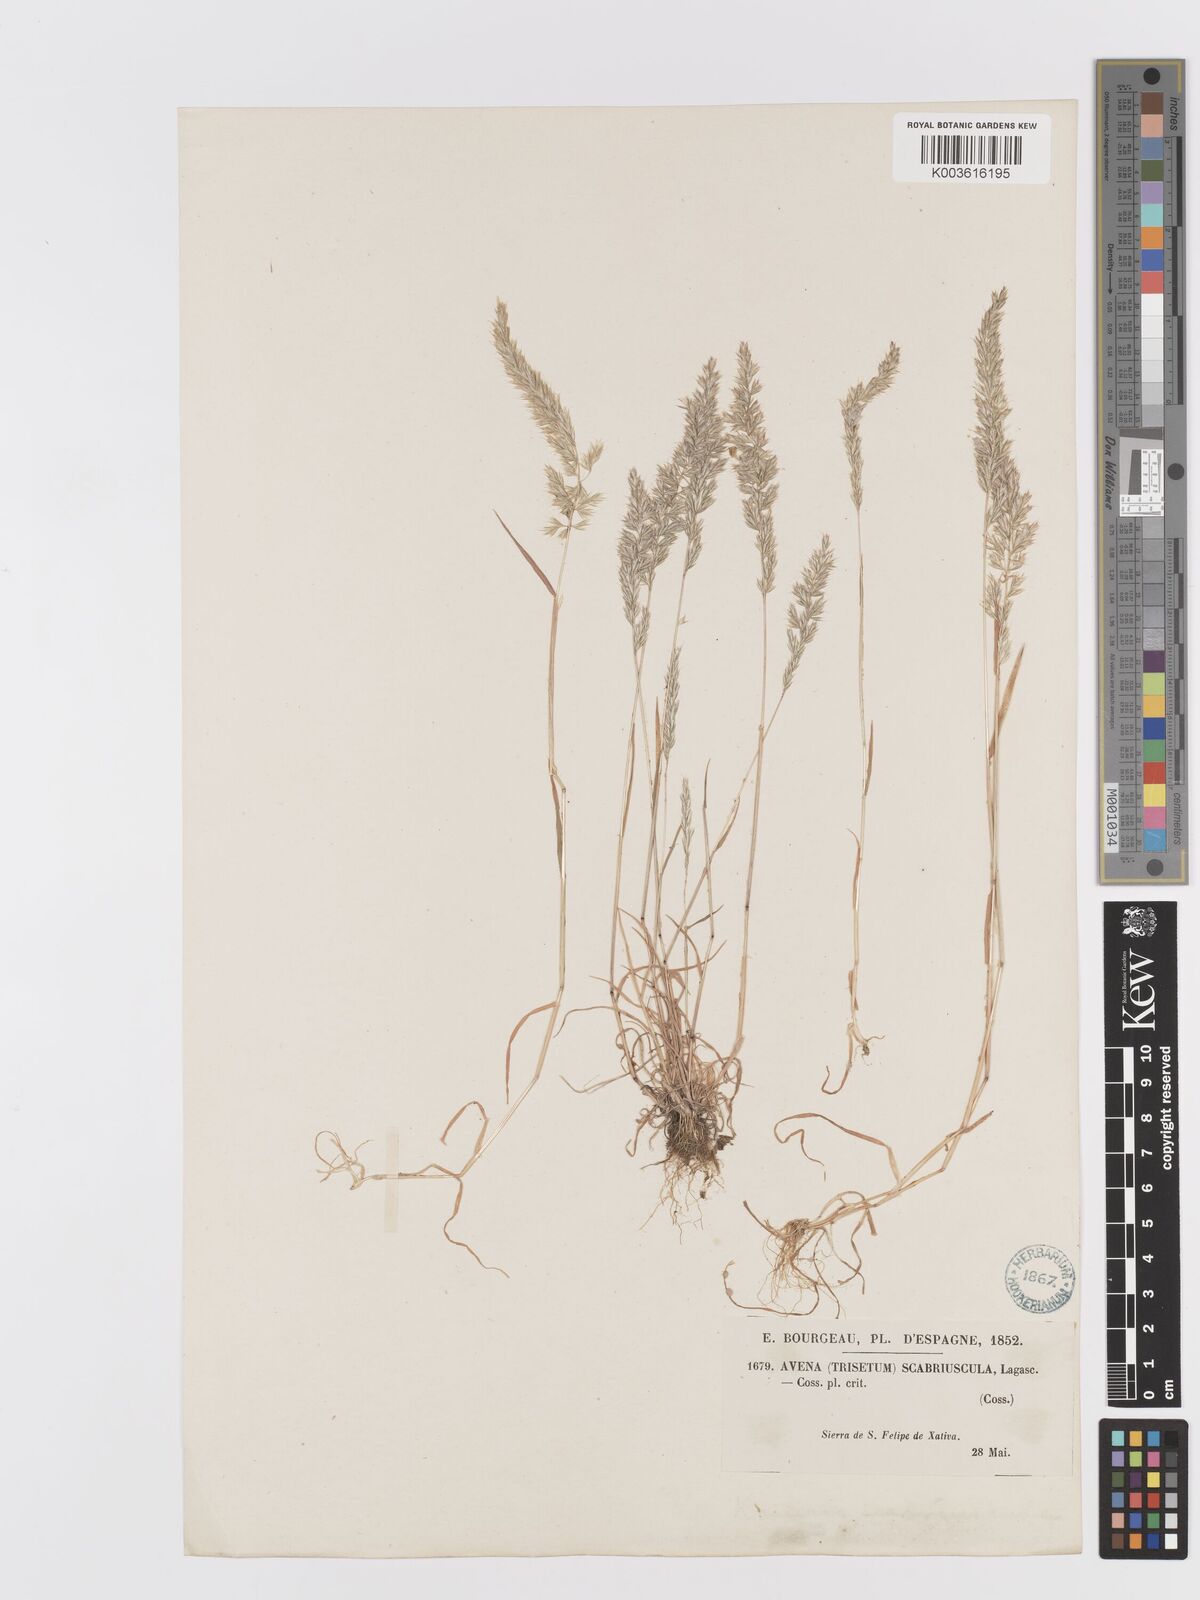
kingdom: Plantae
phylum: Tracheophyta
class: Liliopsida
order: Poales
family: Poaceae
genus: Trisetaria
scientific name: Trisetaria scabriuscula
